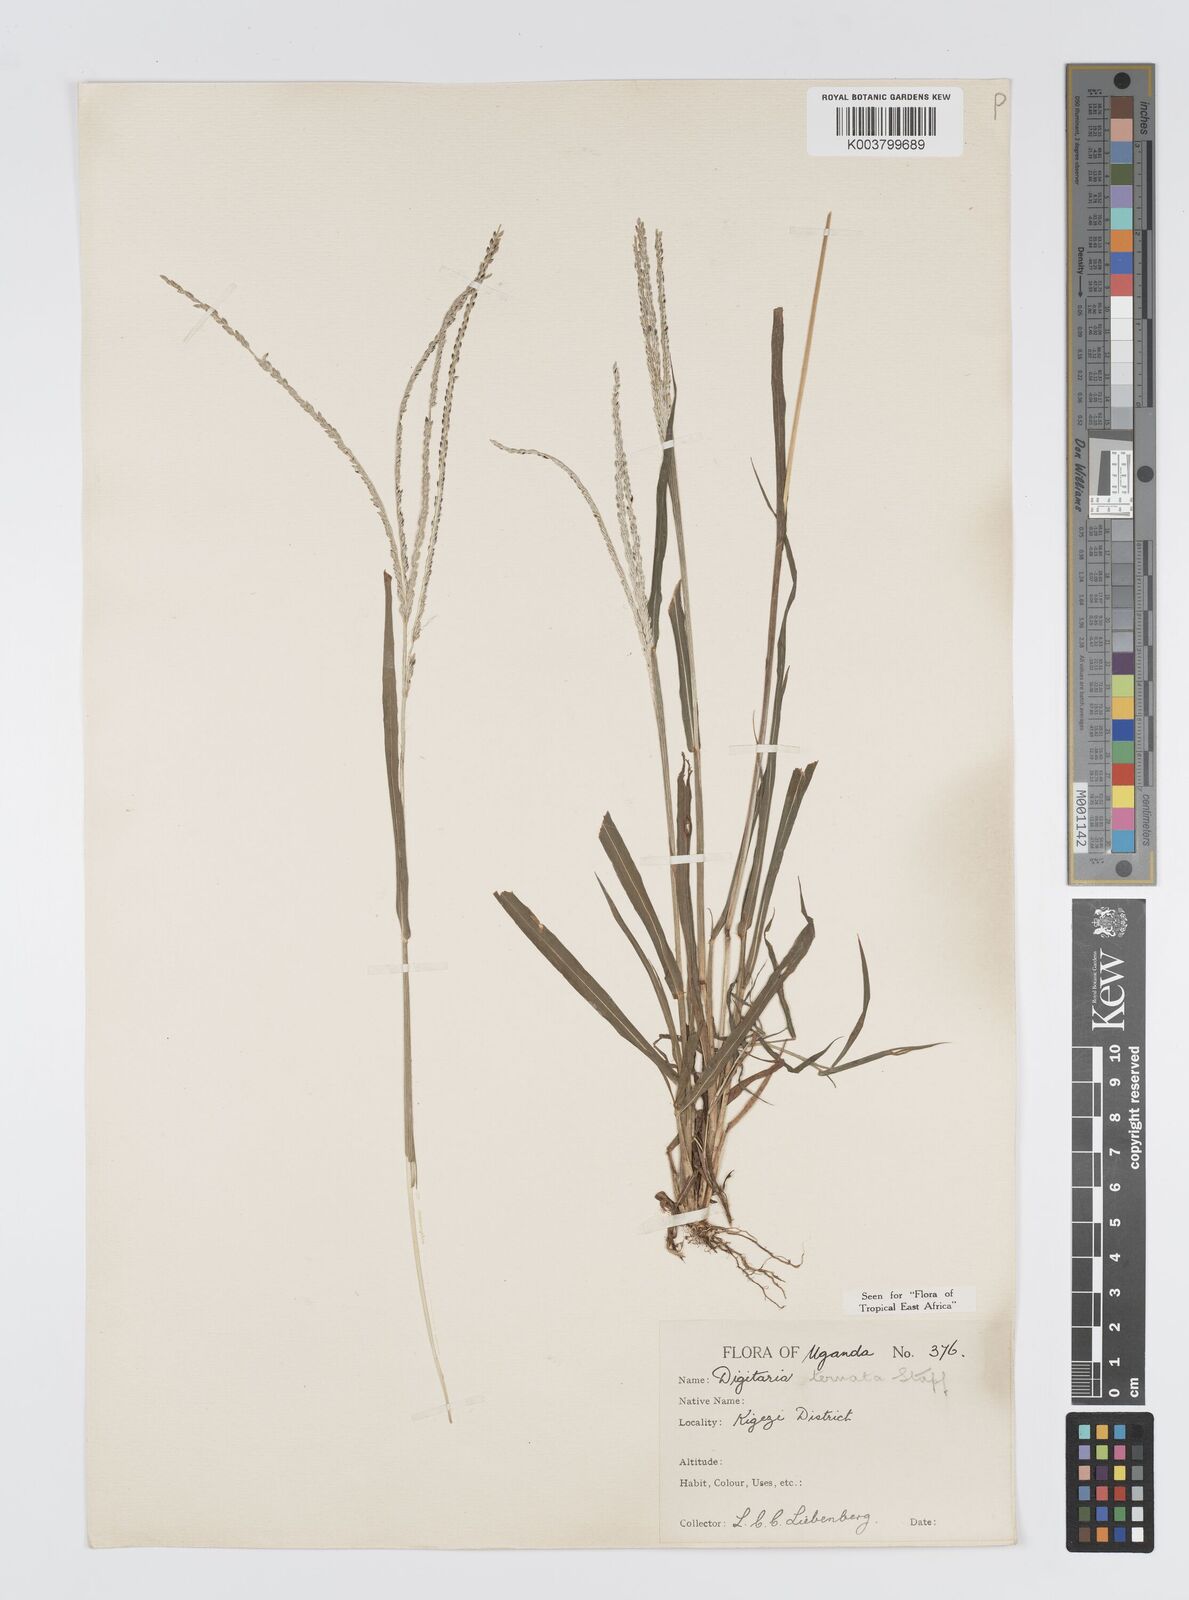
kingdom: Plantae
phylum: Tracheophyta
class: Liliopsida
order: Poales
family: Poaceae
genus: Digitaria
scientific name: Digitaria ternata
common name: Blackseed crabgrass
